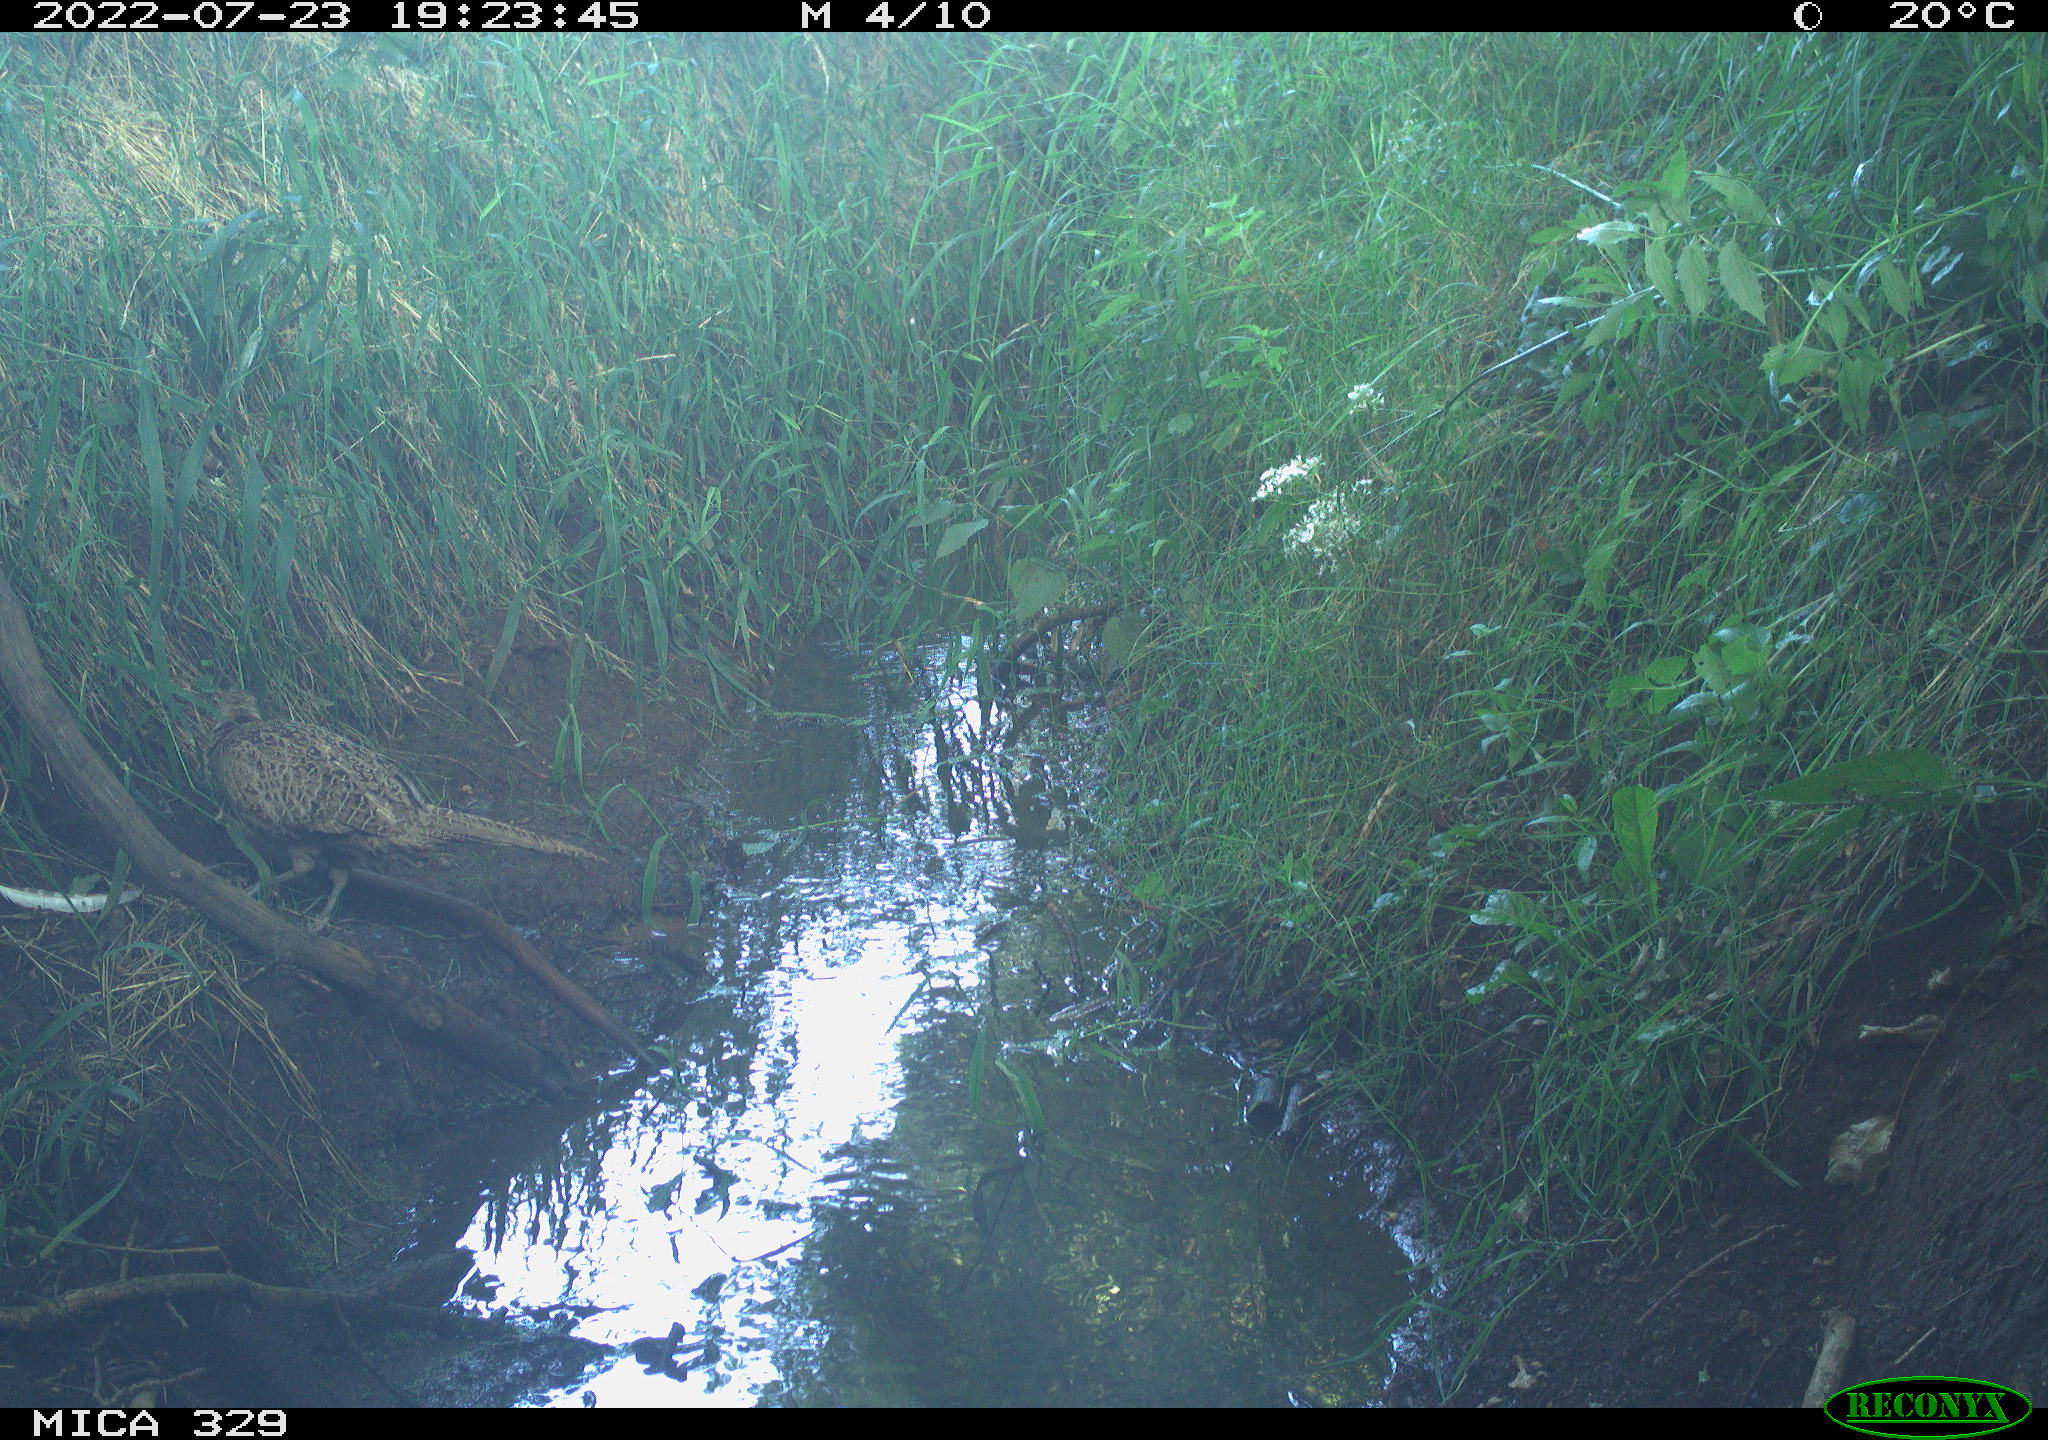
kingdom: Animalia
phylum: Chordata
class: Aves
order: Galliformes
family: Phasianidae
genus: Phasianus
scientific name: Phasianus colchicus
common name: Common pheasant
